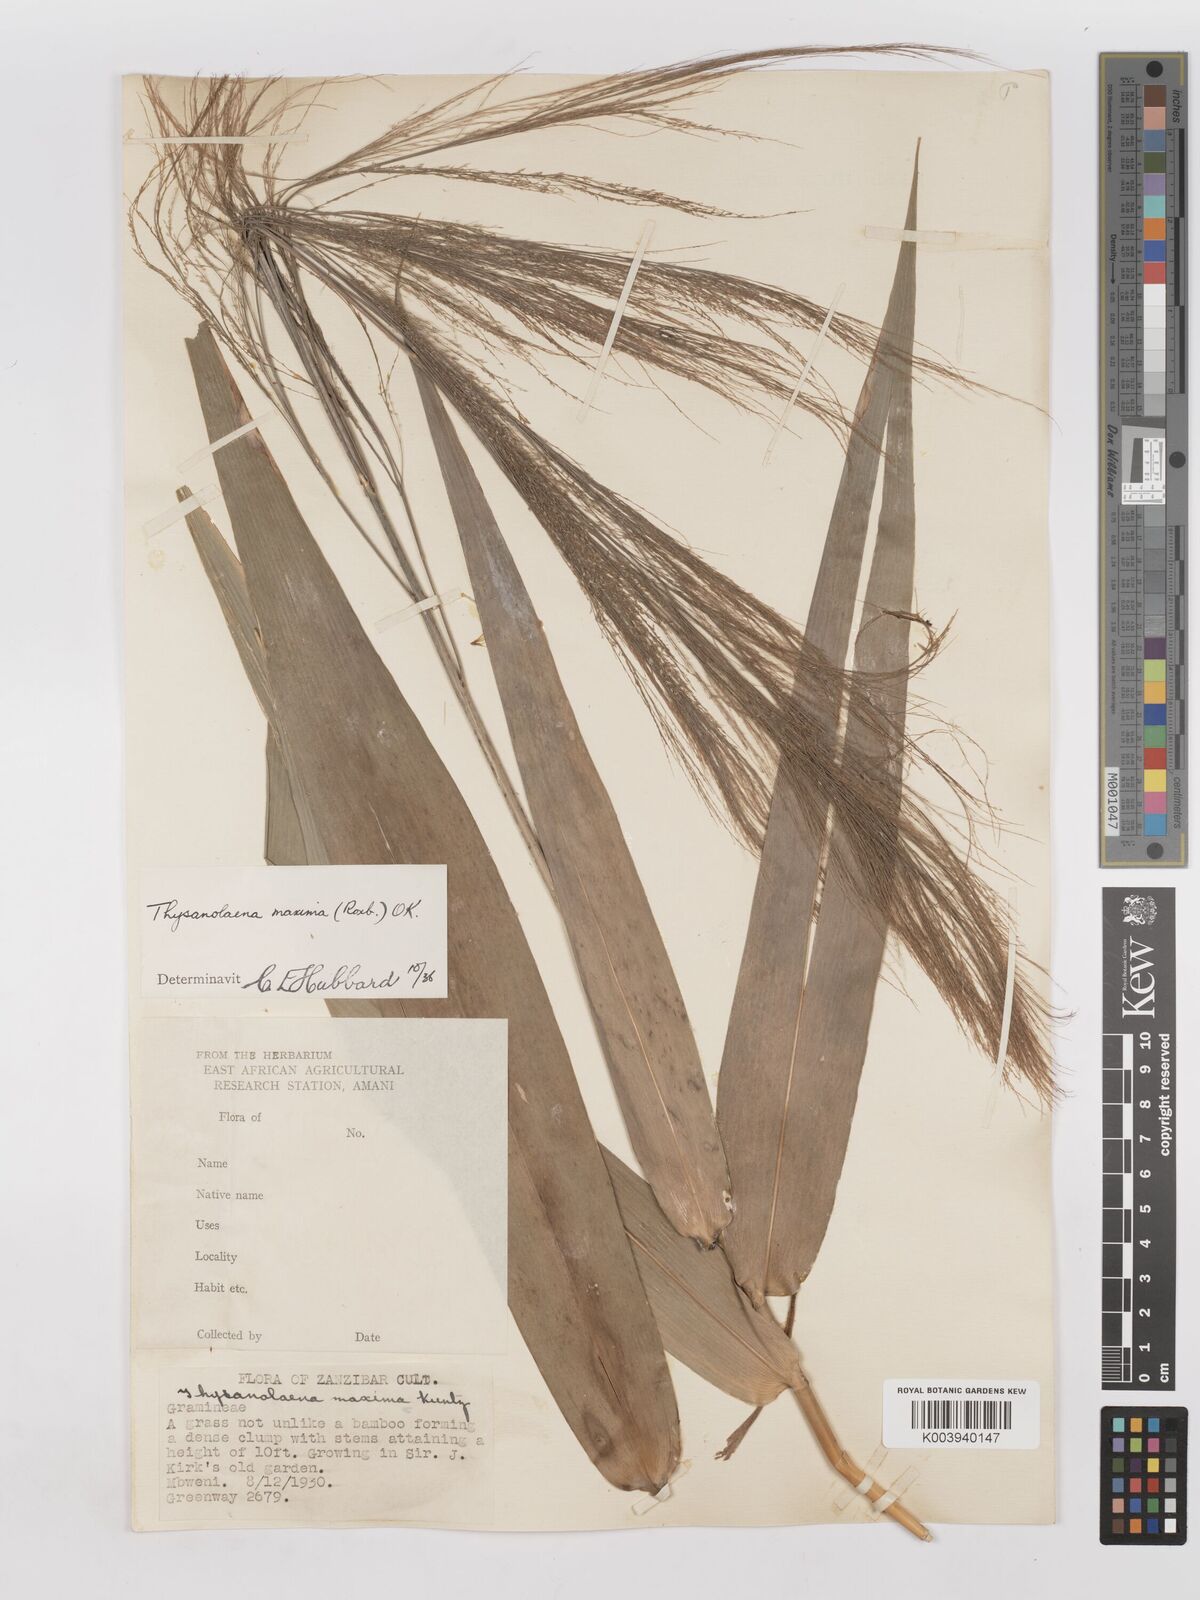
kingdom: Plantae
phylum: Tracheophyta
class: Liliopsida
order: Poales
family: Poaceae
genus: Thysanolaena
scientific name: Thysanolaena latifolia
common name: Tiger grass
